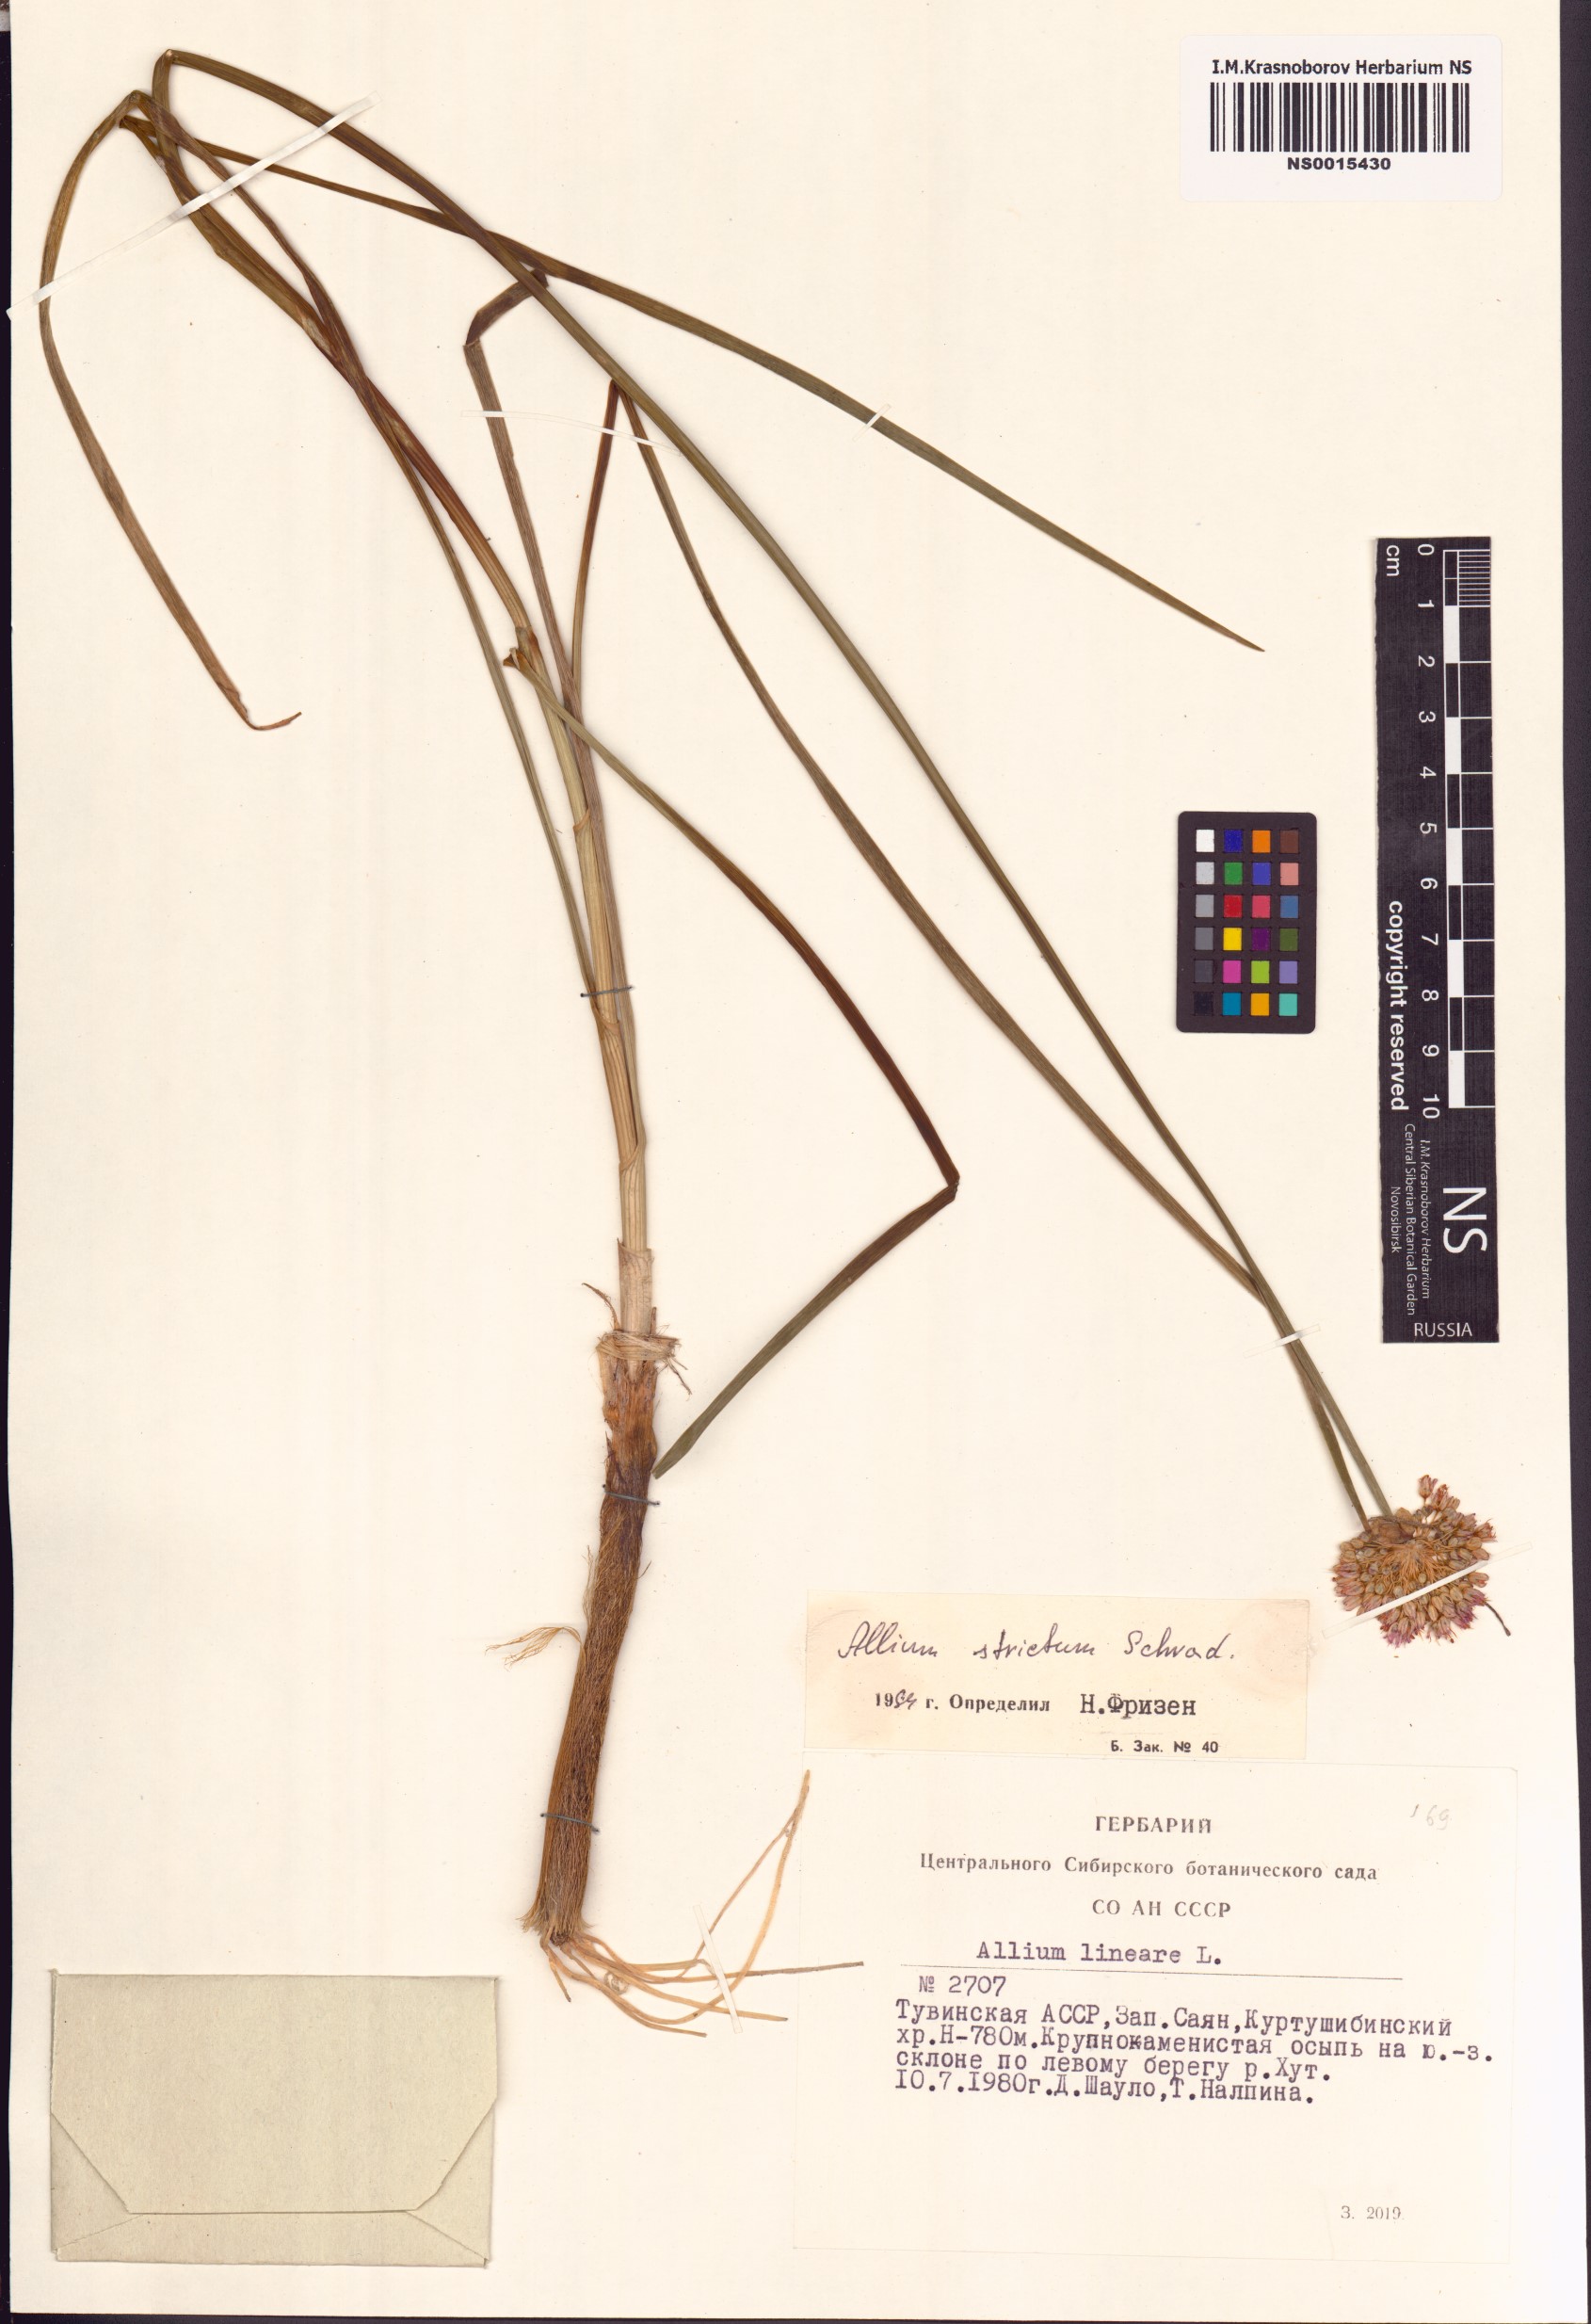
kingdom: Plantae
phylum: Tracheophyta
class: Liliopsida
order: Asparagales
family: Amaryllidaceae
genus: Allium
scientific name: Allium strictum
